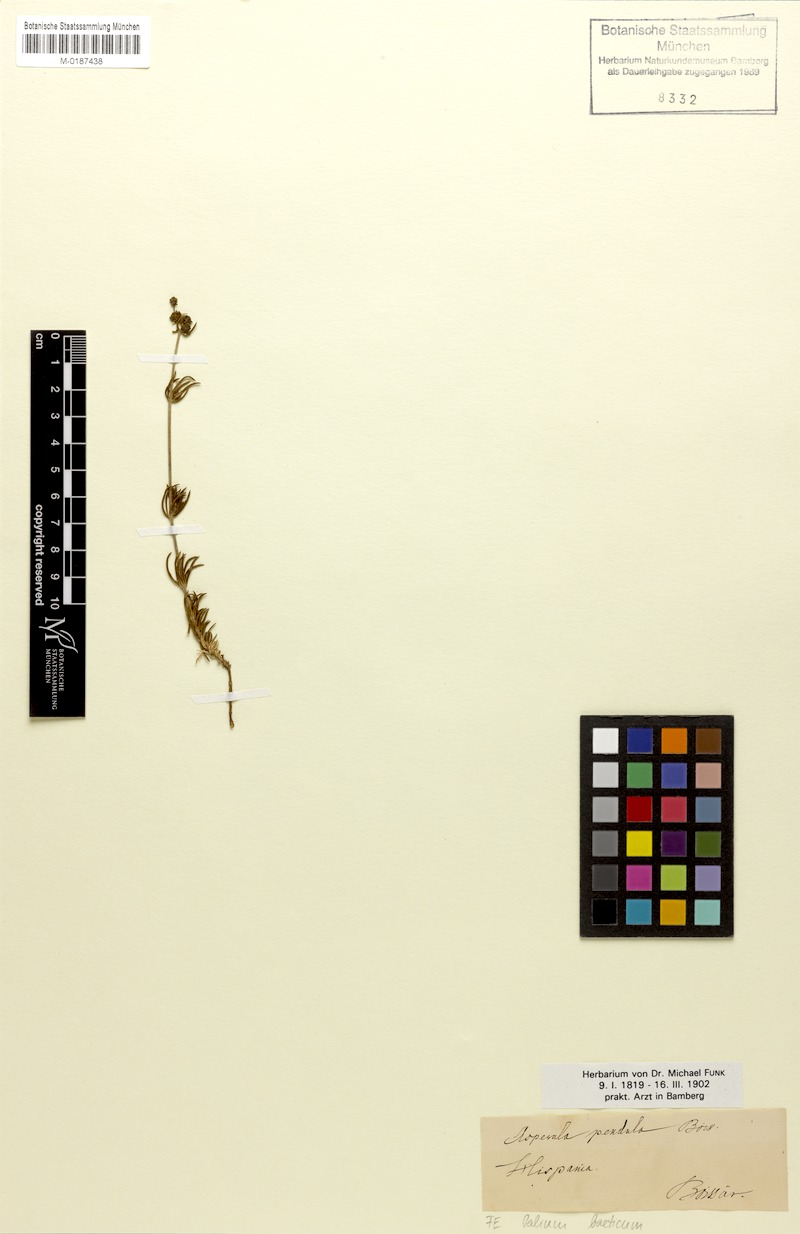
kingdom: Plantae
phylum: Tracheophyta
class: Magnoliopsida
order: Gentianales
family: Rubiaceae
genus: Galium
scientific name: Galium baeticum
